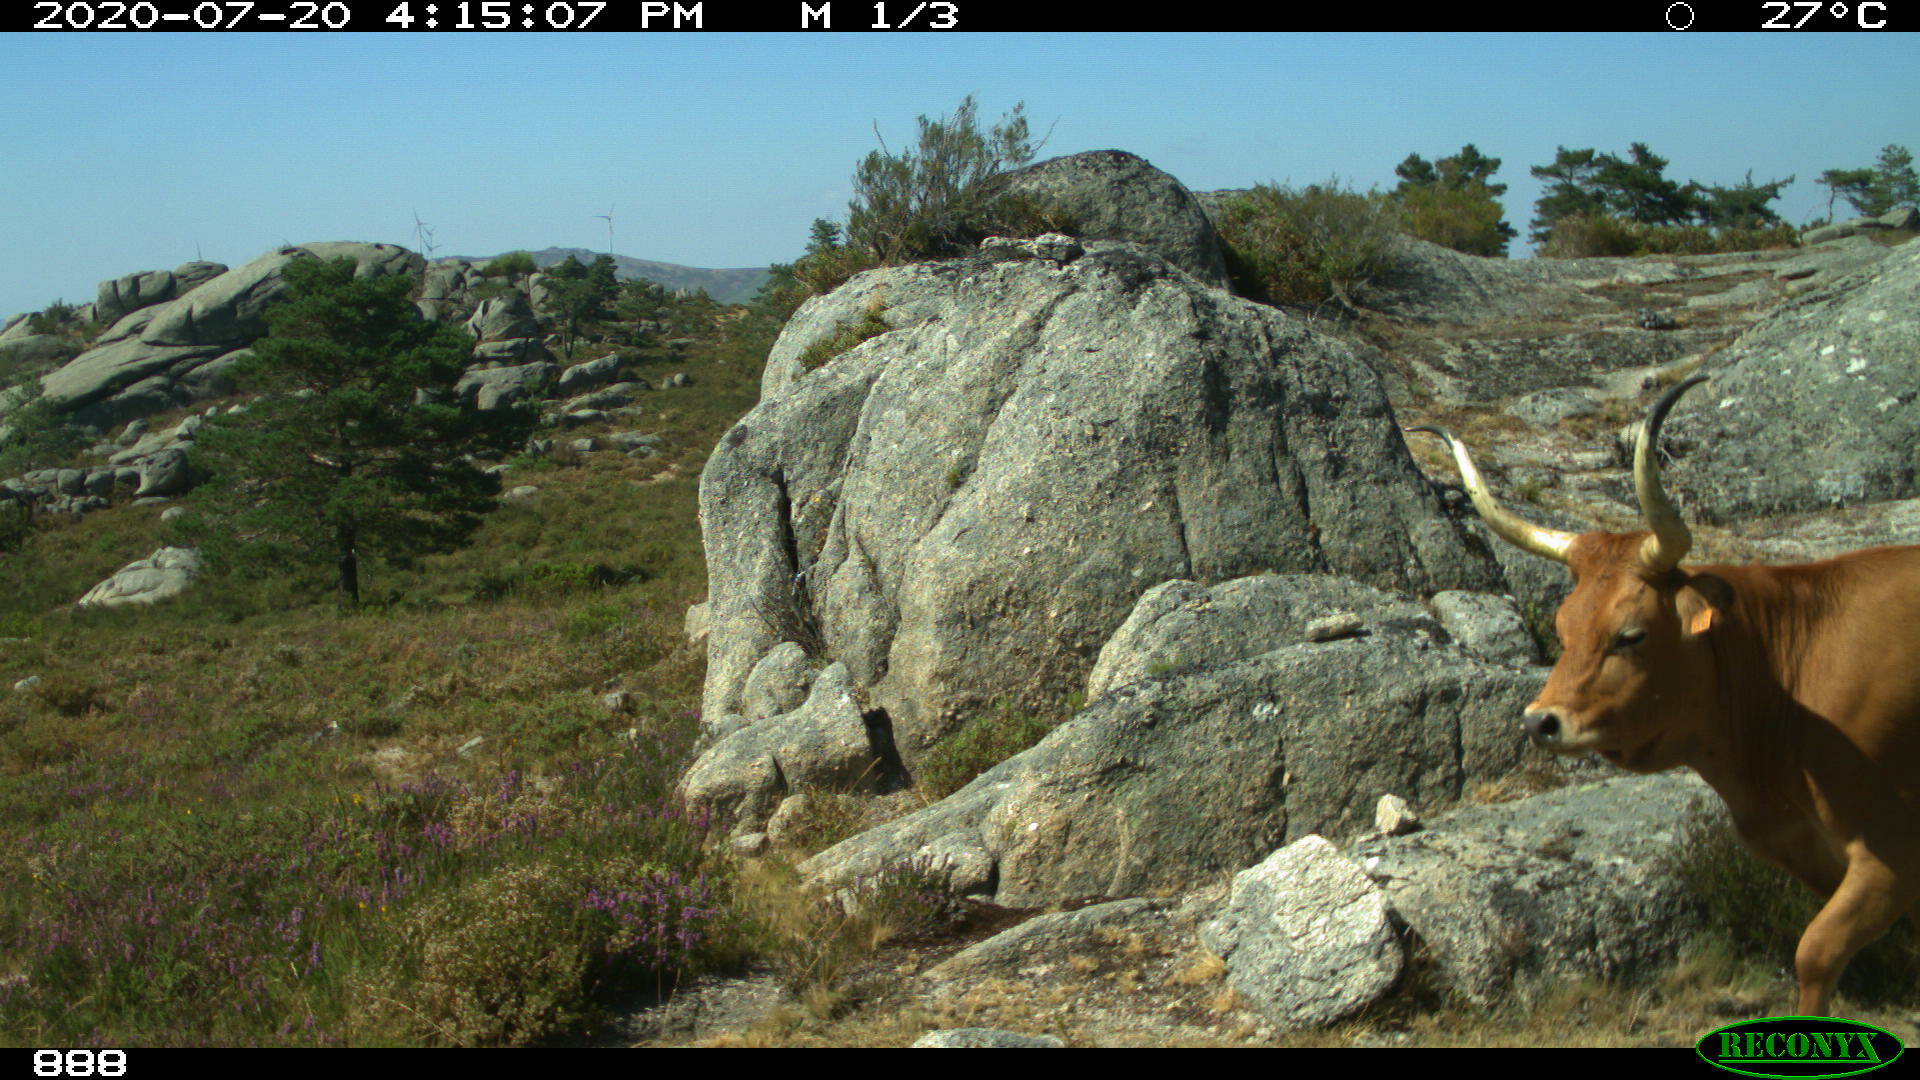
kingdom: Animalia
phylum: Chordata
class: Mammalia
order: Artiodactyla
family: Bovidae
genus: Bos
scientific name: Bos taurus
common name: Domesticated cattle
